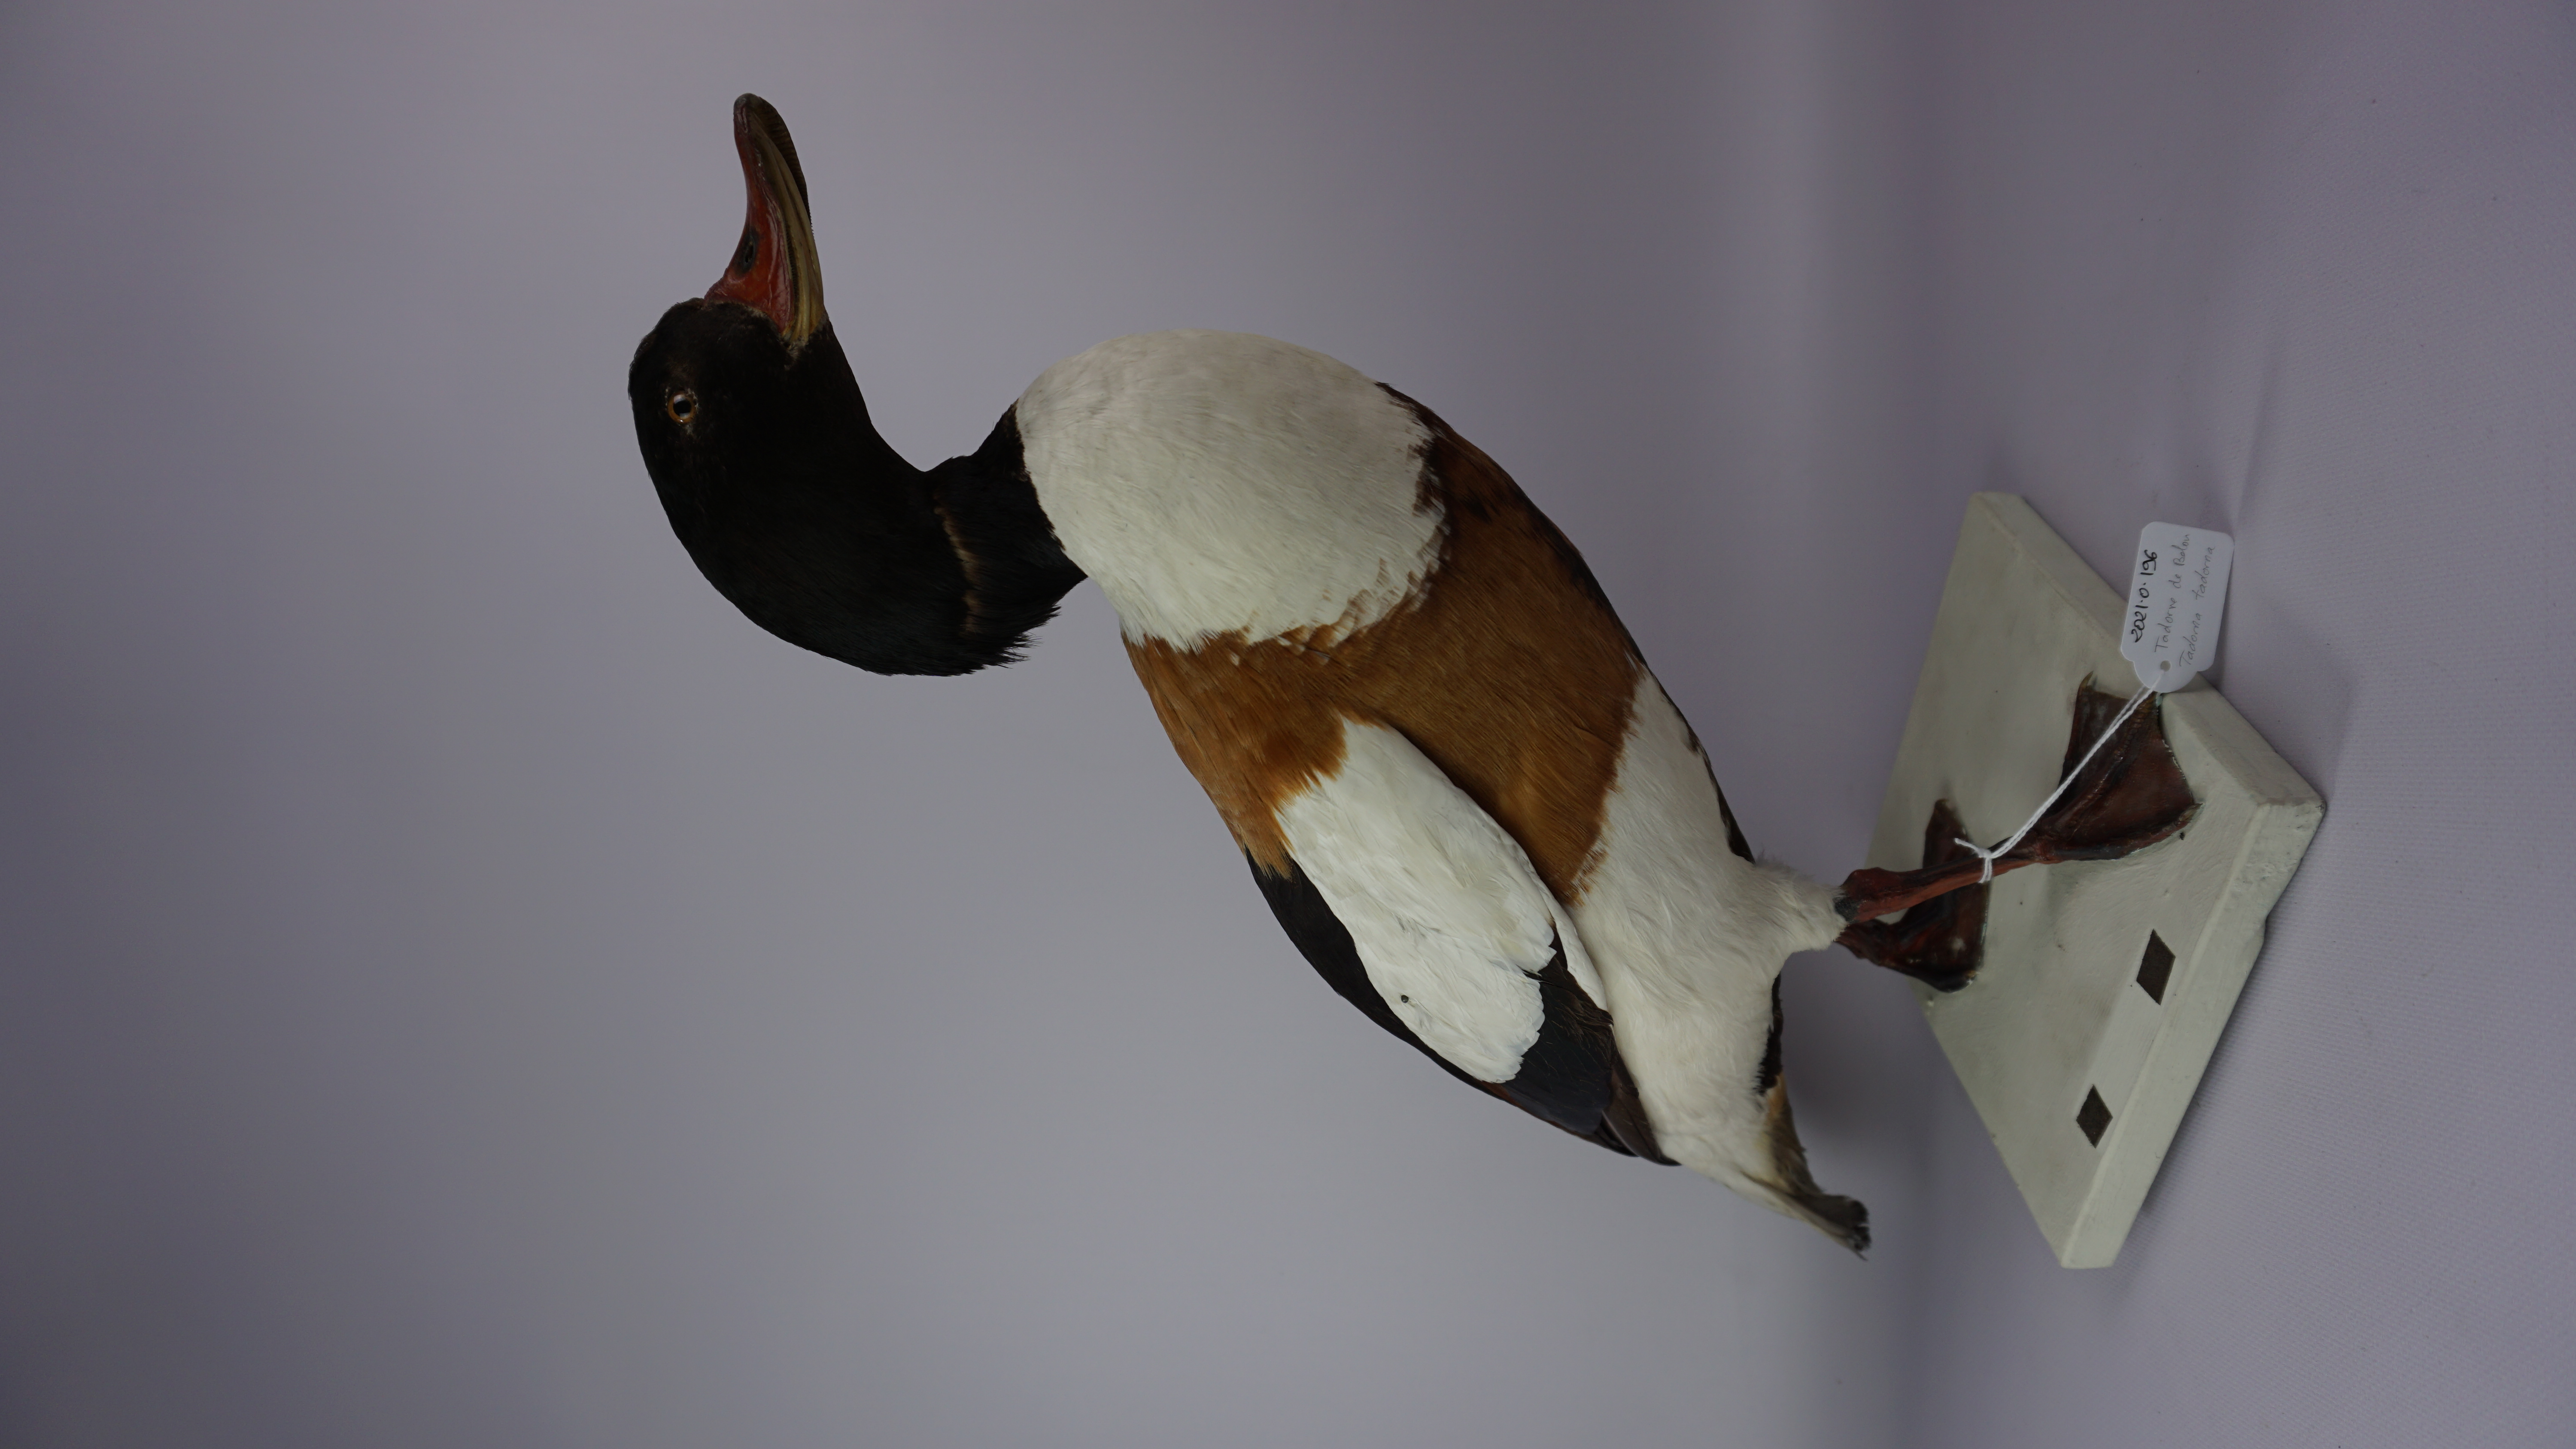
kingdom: Animalia
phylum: Chordata
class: Aves
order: Anseriformes
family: Anatidae
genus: Tadorna
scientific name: Tadorna tadorna
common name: Common shelduck
